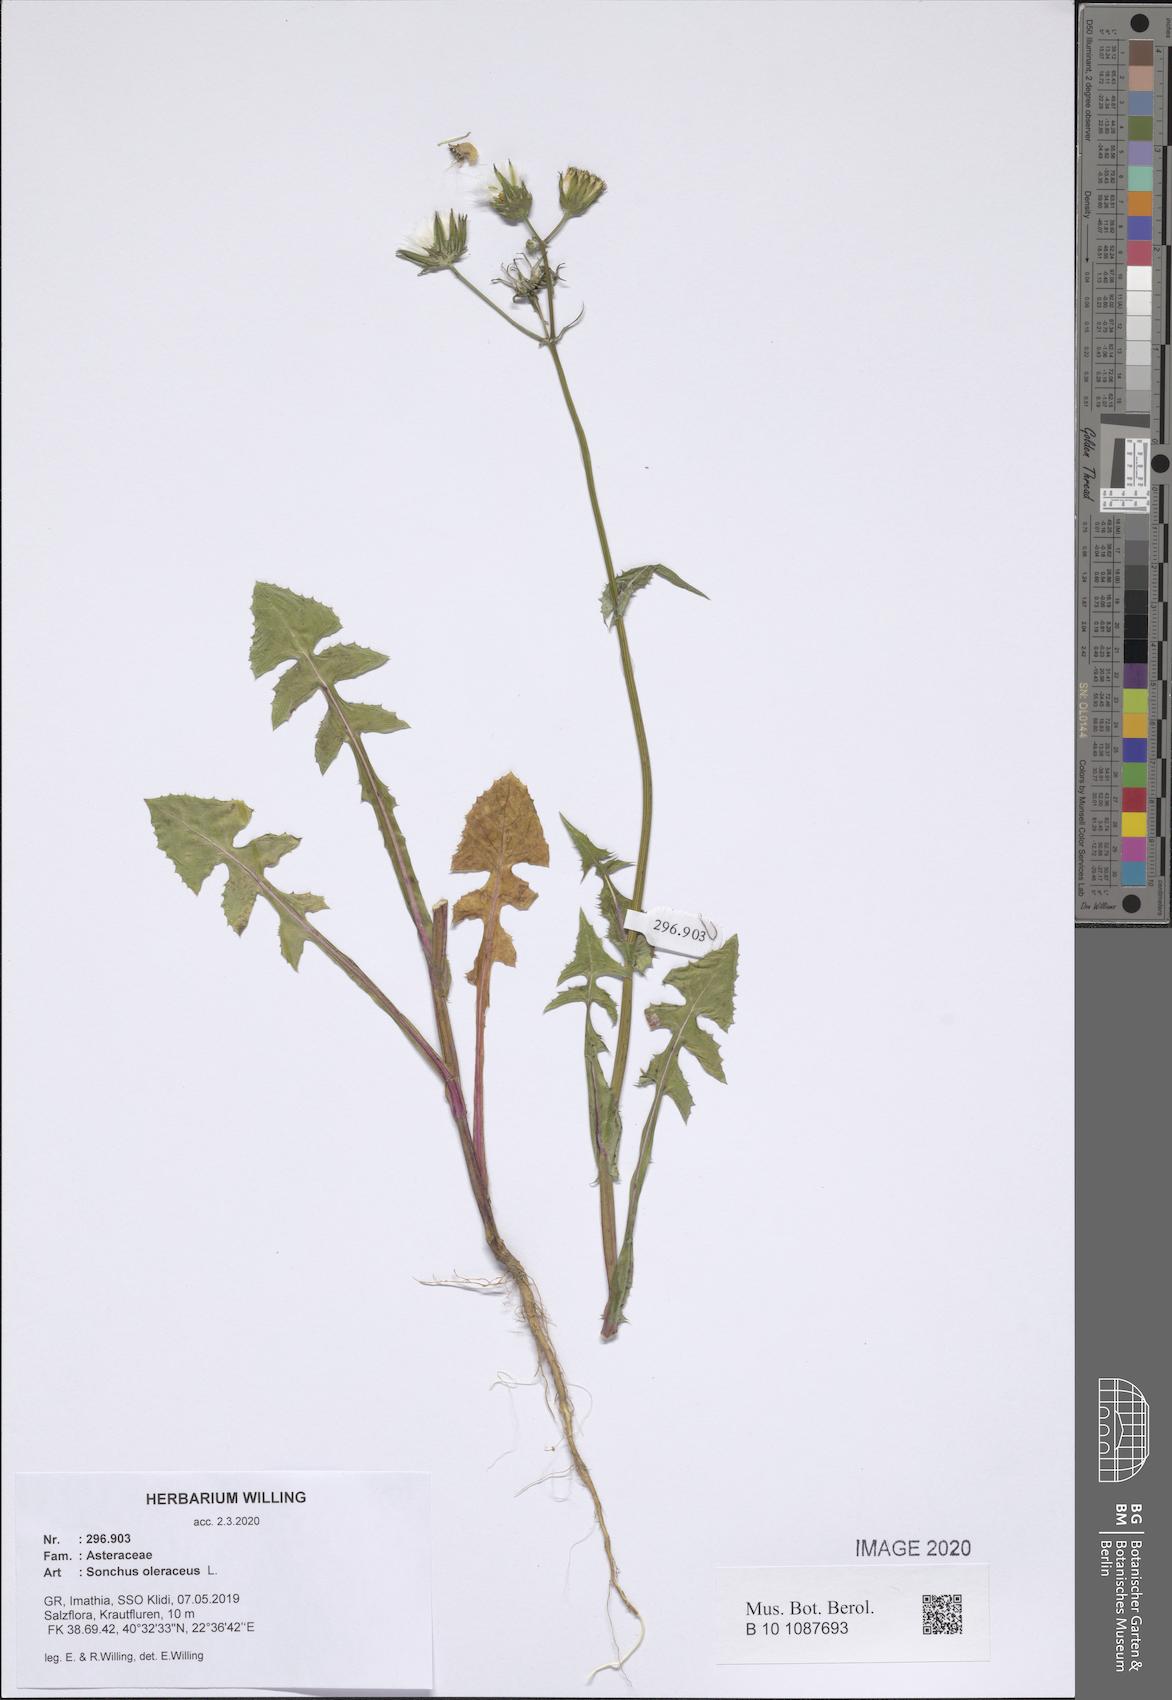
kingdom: Plantae
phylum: Tracheophyta
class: Magnoliopsida
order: Asterales
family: Asteraceae
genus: Sonchus
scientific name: Sonchus oleraceus
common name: Common sowthistle
